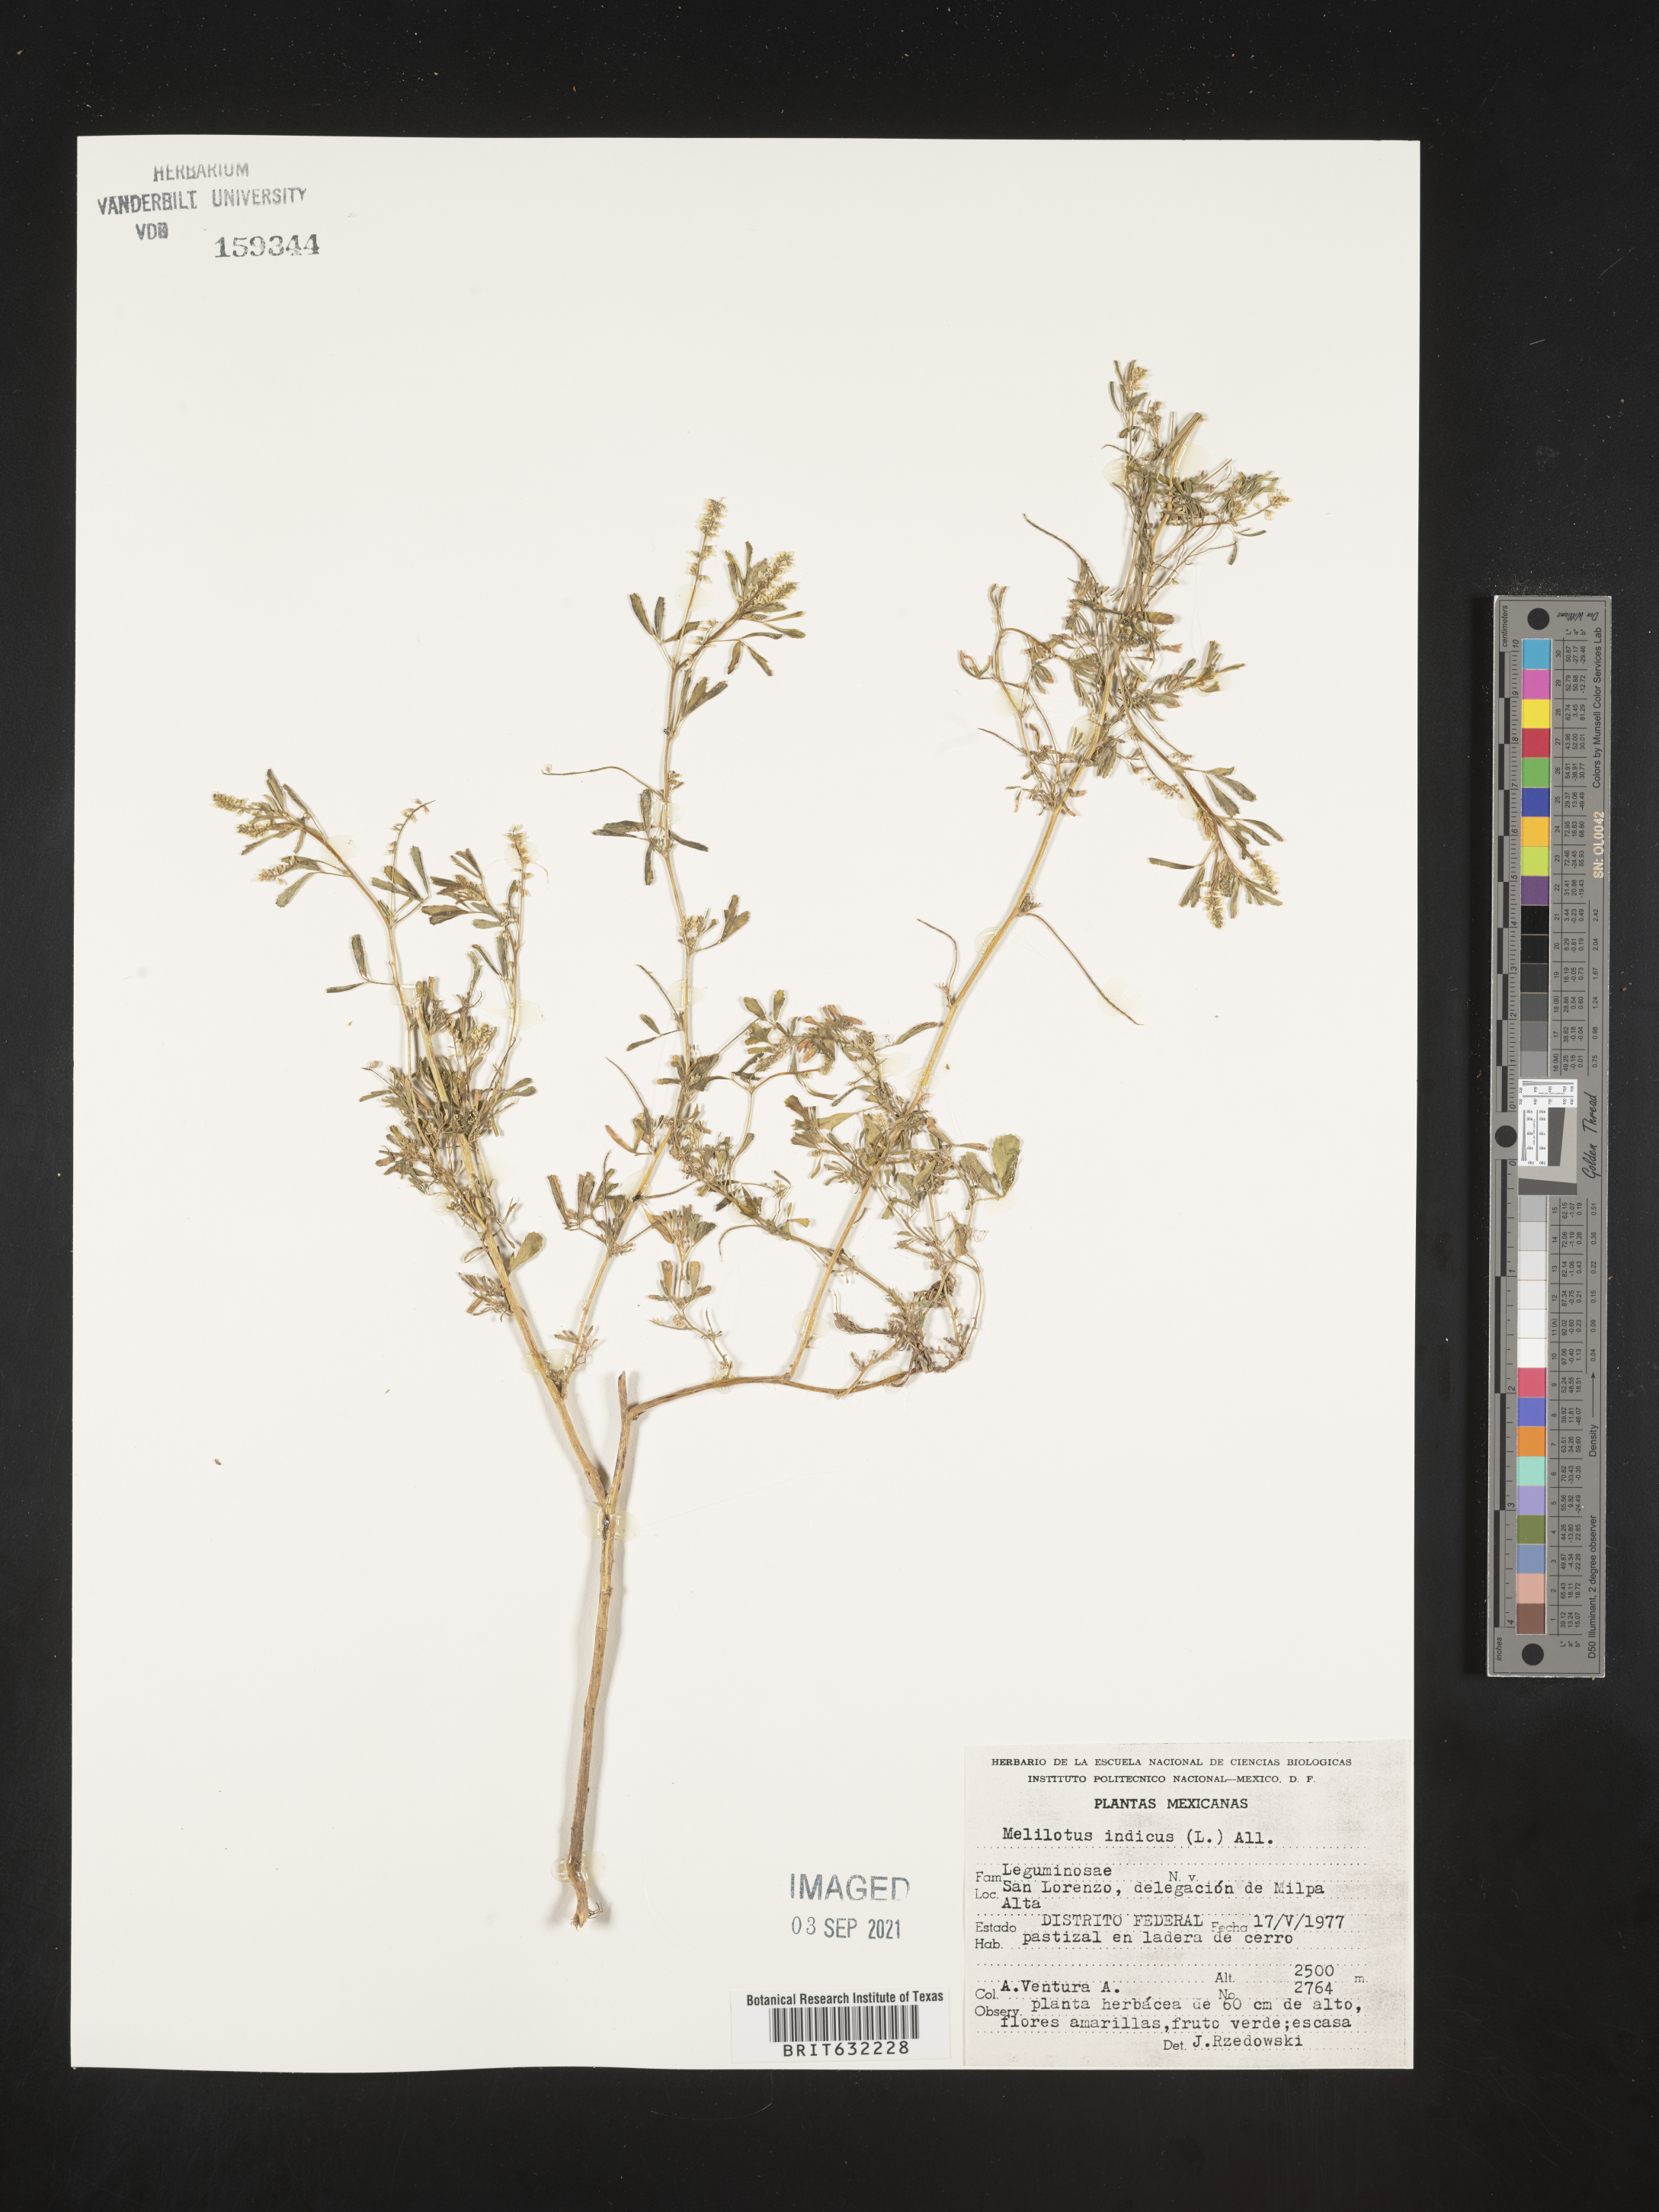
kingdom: Plantae
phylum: Tracheophyta
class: Magnoliopsida
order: Fabales
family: Fabaceae
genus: Melilotus
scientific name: Melilotus
